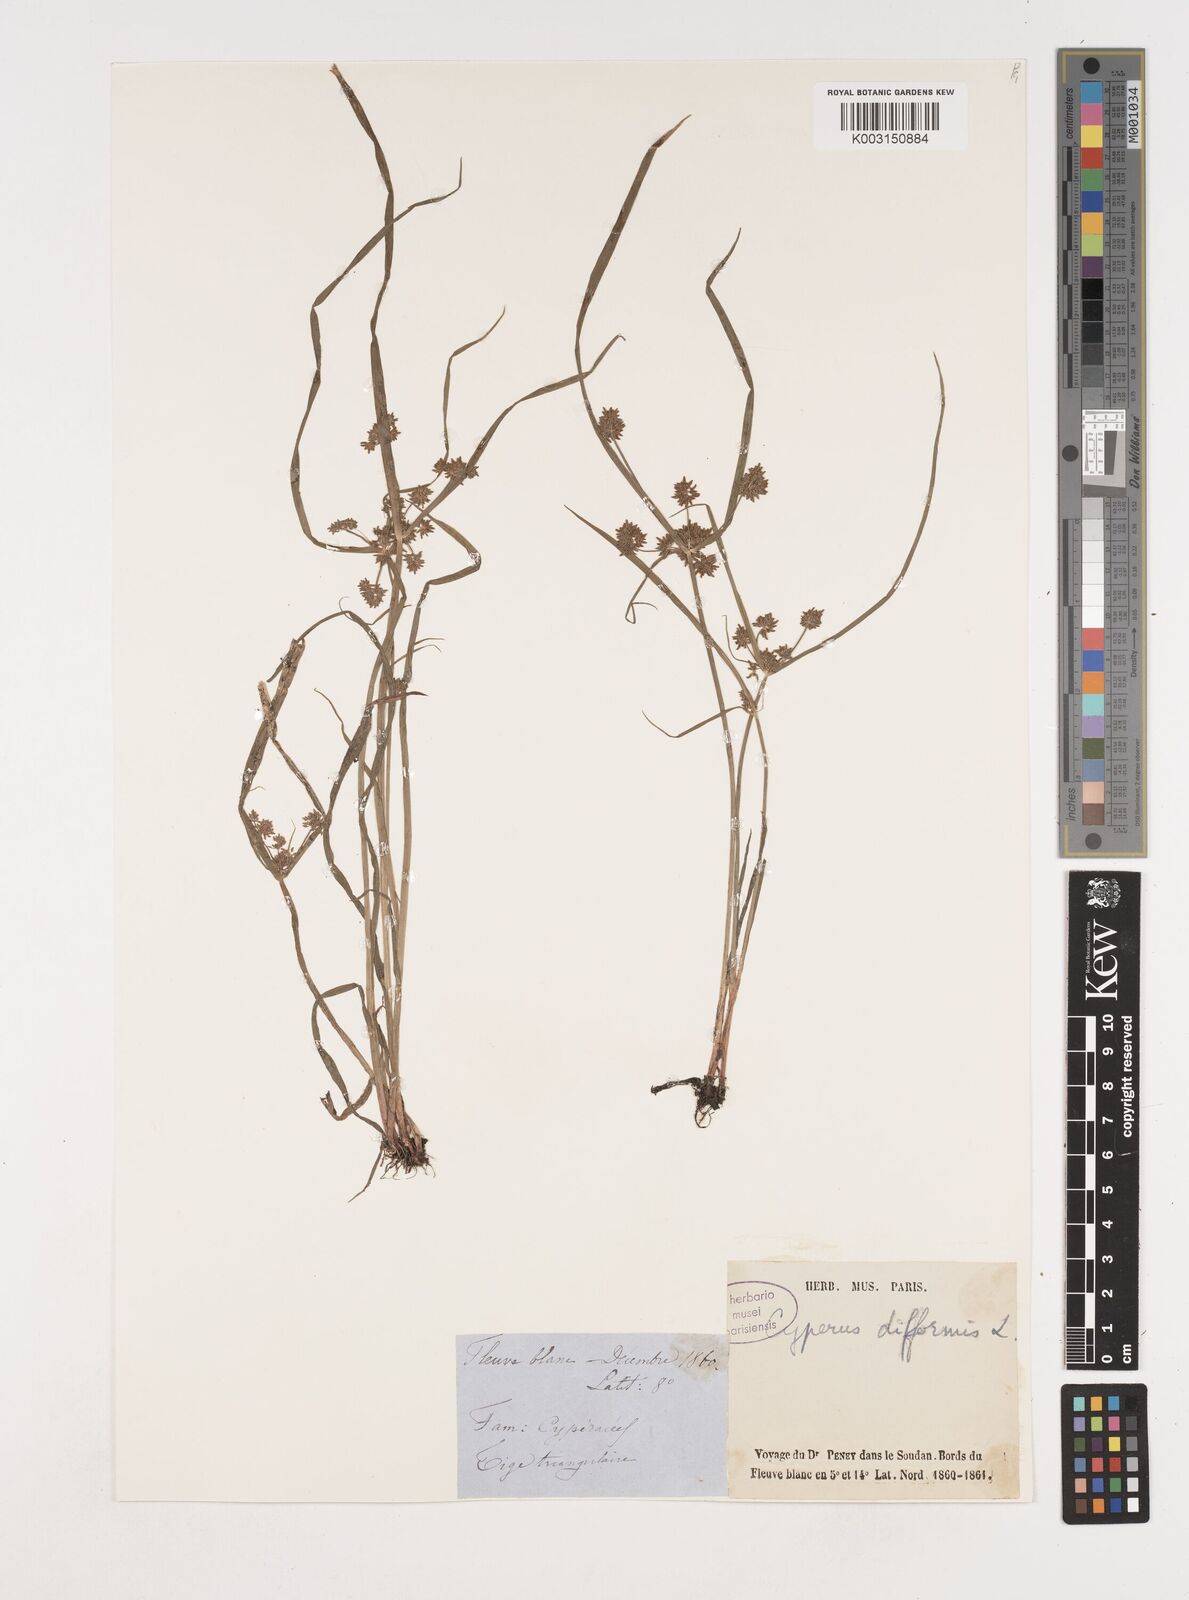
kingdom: Plantae
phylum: Tracheophyta
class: Liliopsida
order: Poales
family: Cyperaceae
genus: Cyperus
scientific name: Cyperus difformis
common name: Variable flatsedge
